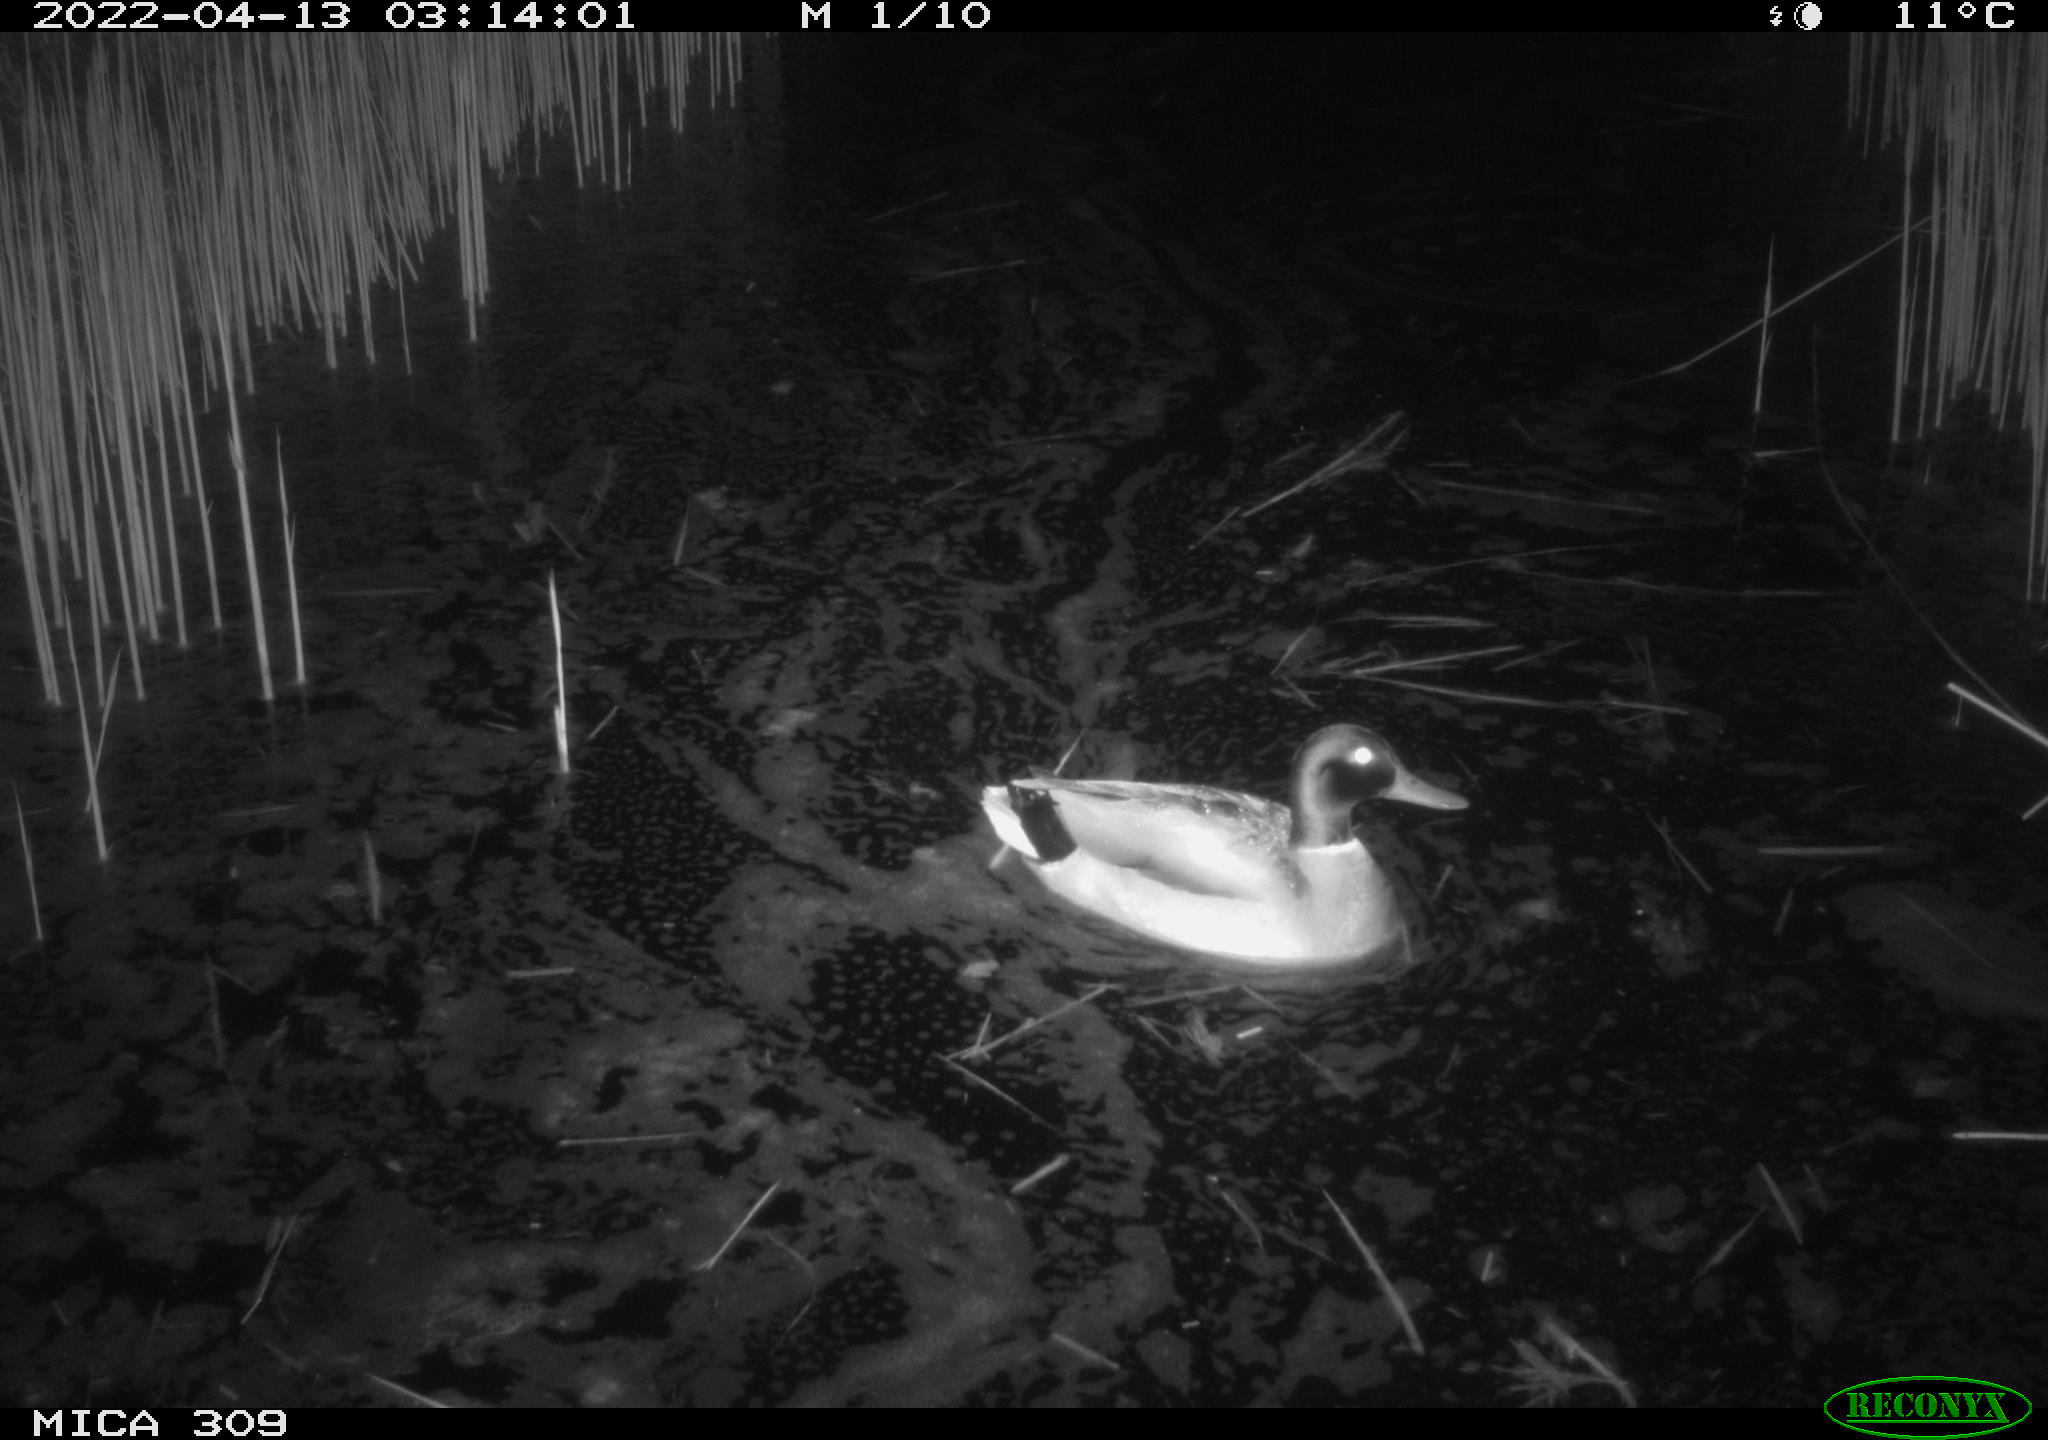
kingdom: Animalia
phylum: Chordata
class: Aves
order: Anseriformes
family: Anatidae
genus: Anas
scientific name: Anas platyrhynchos
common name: Mallard
